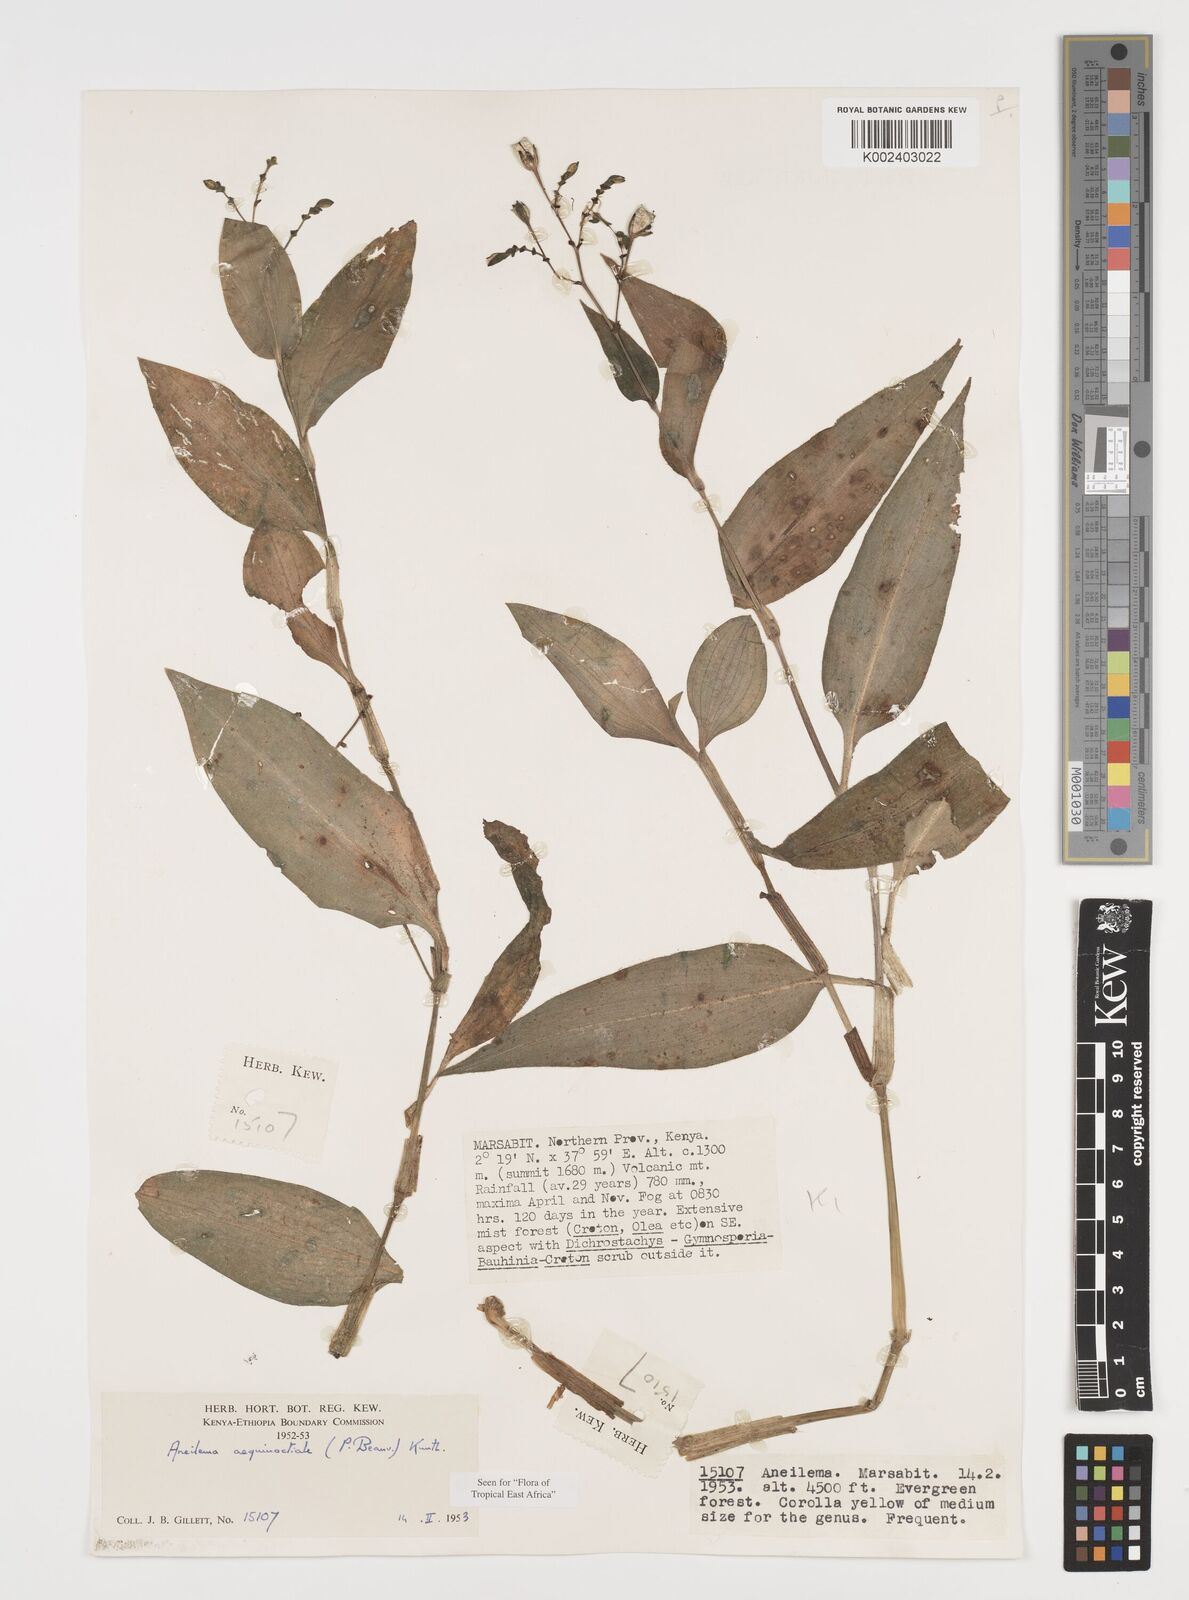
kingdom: Plantae
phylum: Tracheophyta
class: Liliopsida
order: Commelinales
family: Commelinaceae
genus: Aneilema
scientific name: Aneilema aequinoctiale
